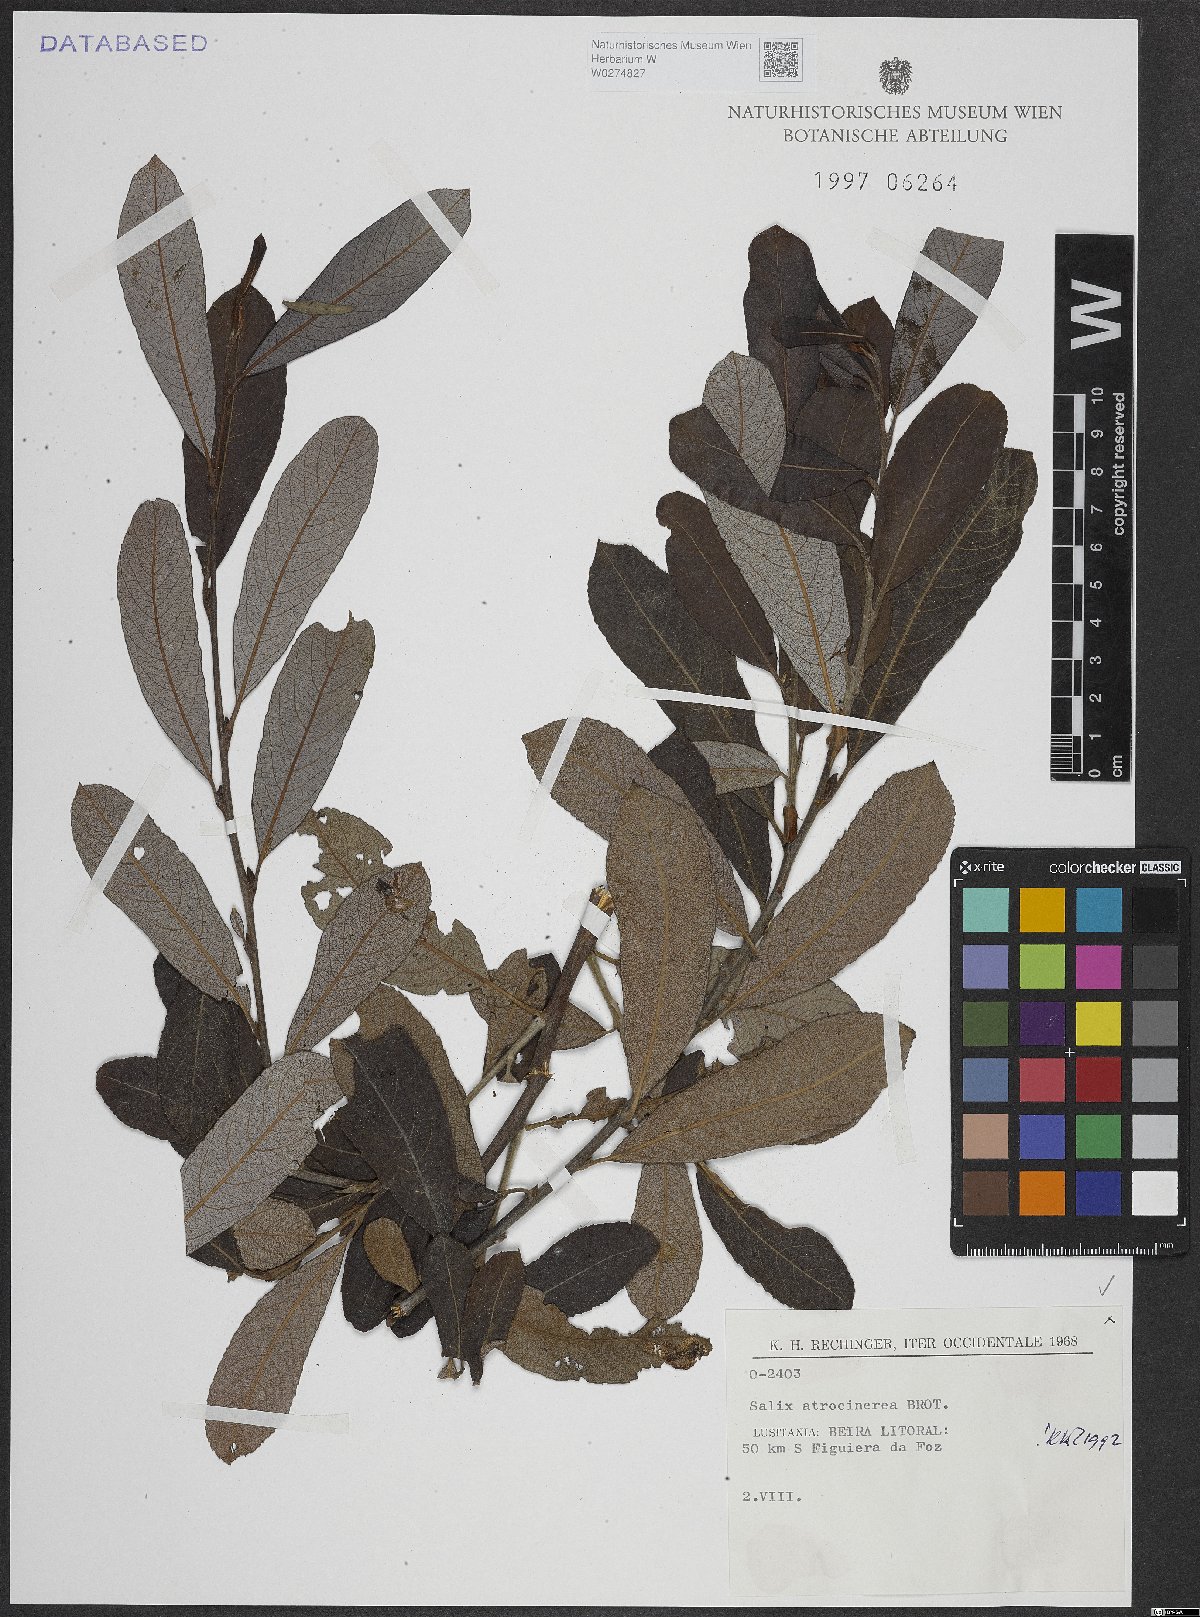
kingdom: Plantae
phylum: Tracheophyta
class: Magnoliopsida
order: Malpighiales
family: Salicaceae
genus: Salix
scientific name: Salix atrocinerea
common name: Rusty willow
